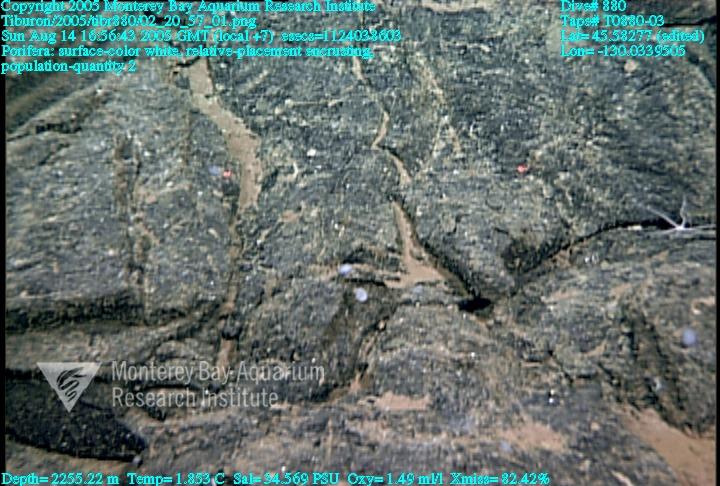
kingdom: Animalia
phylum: Porifera
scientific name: Porifera
